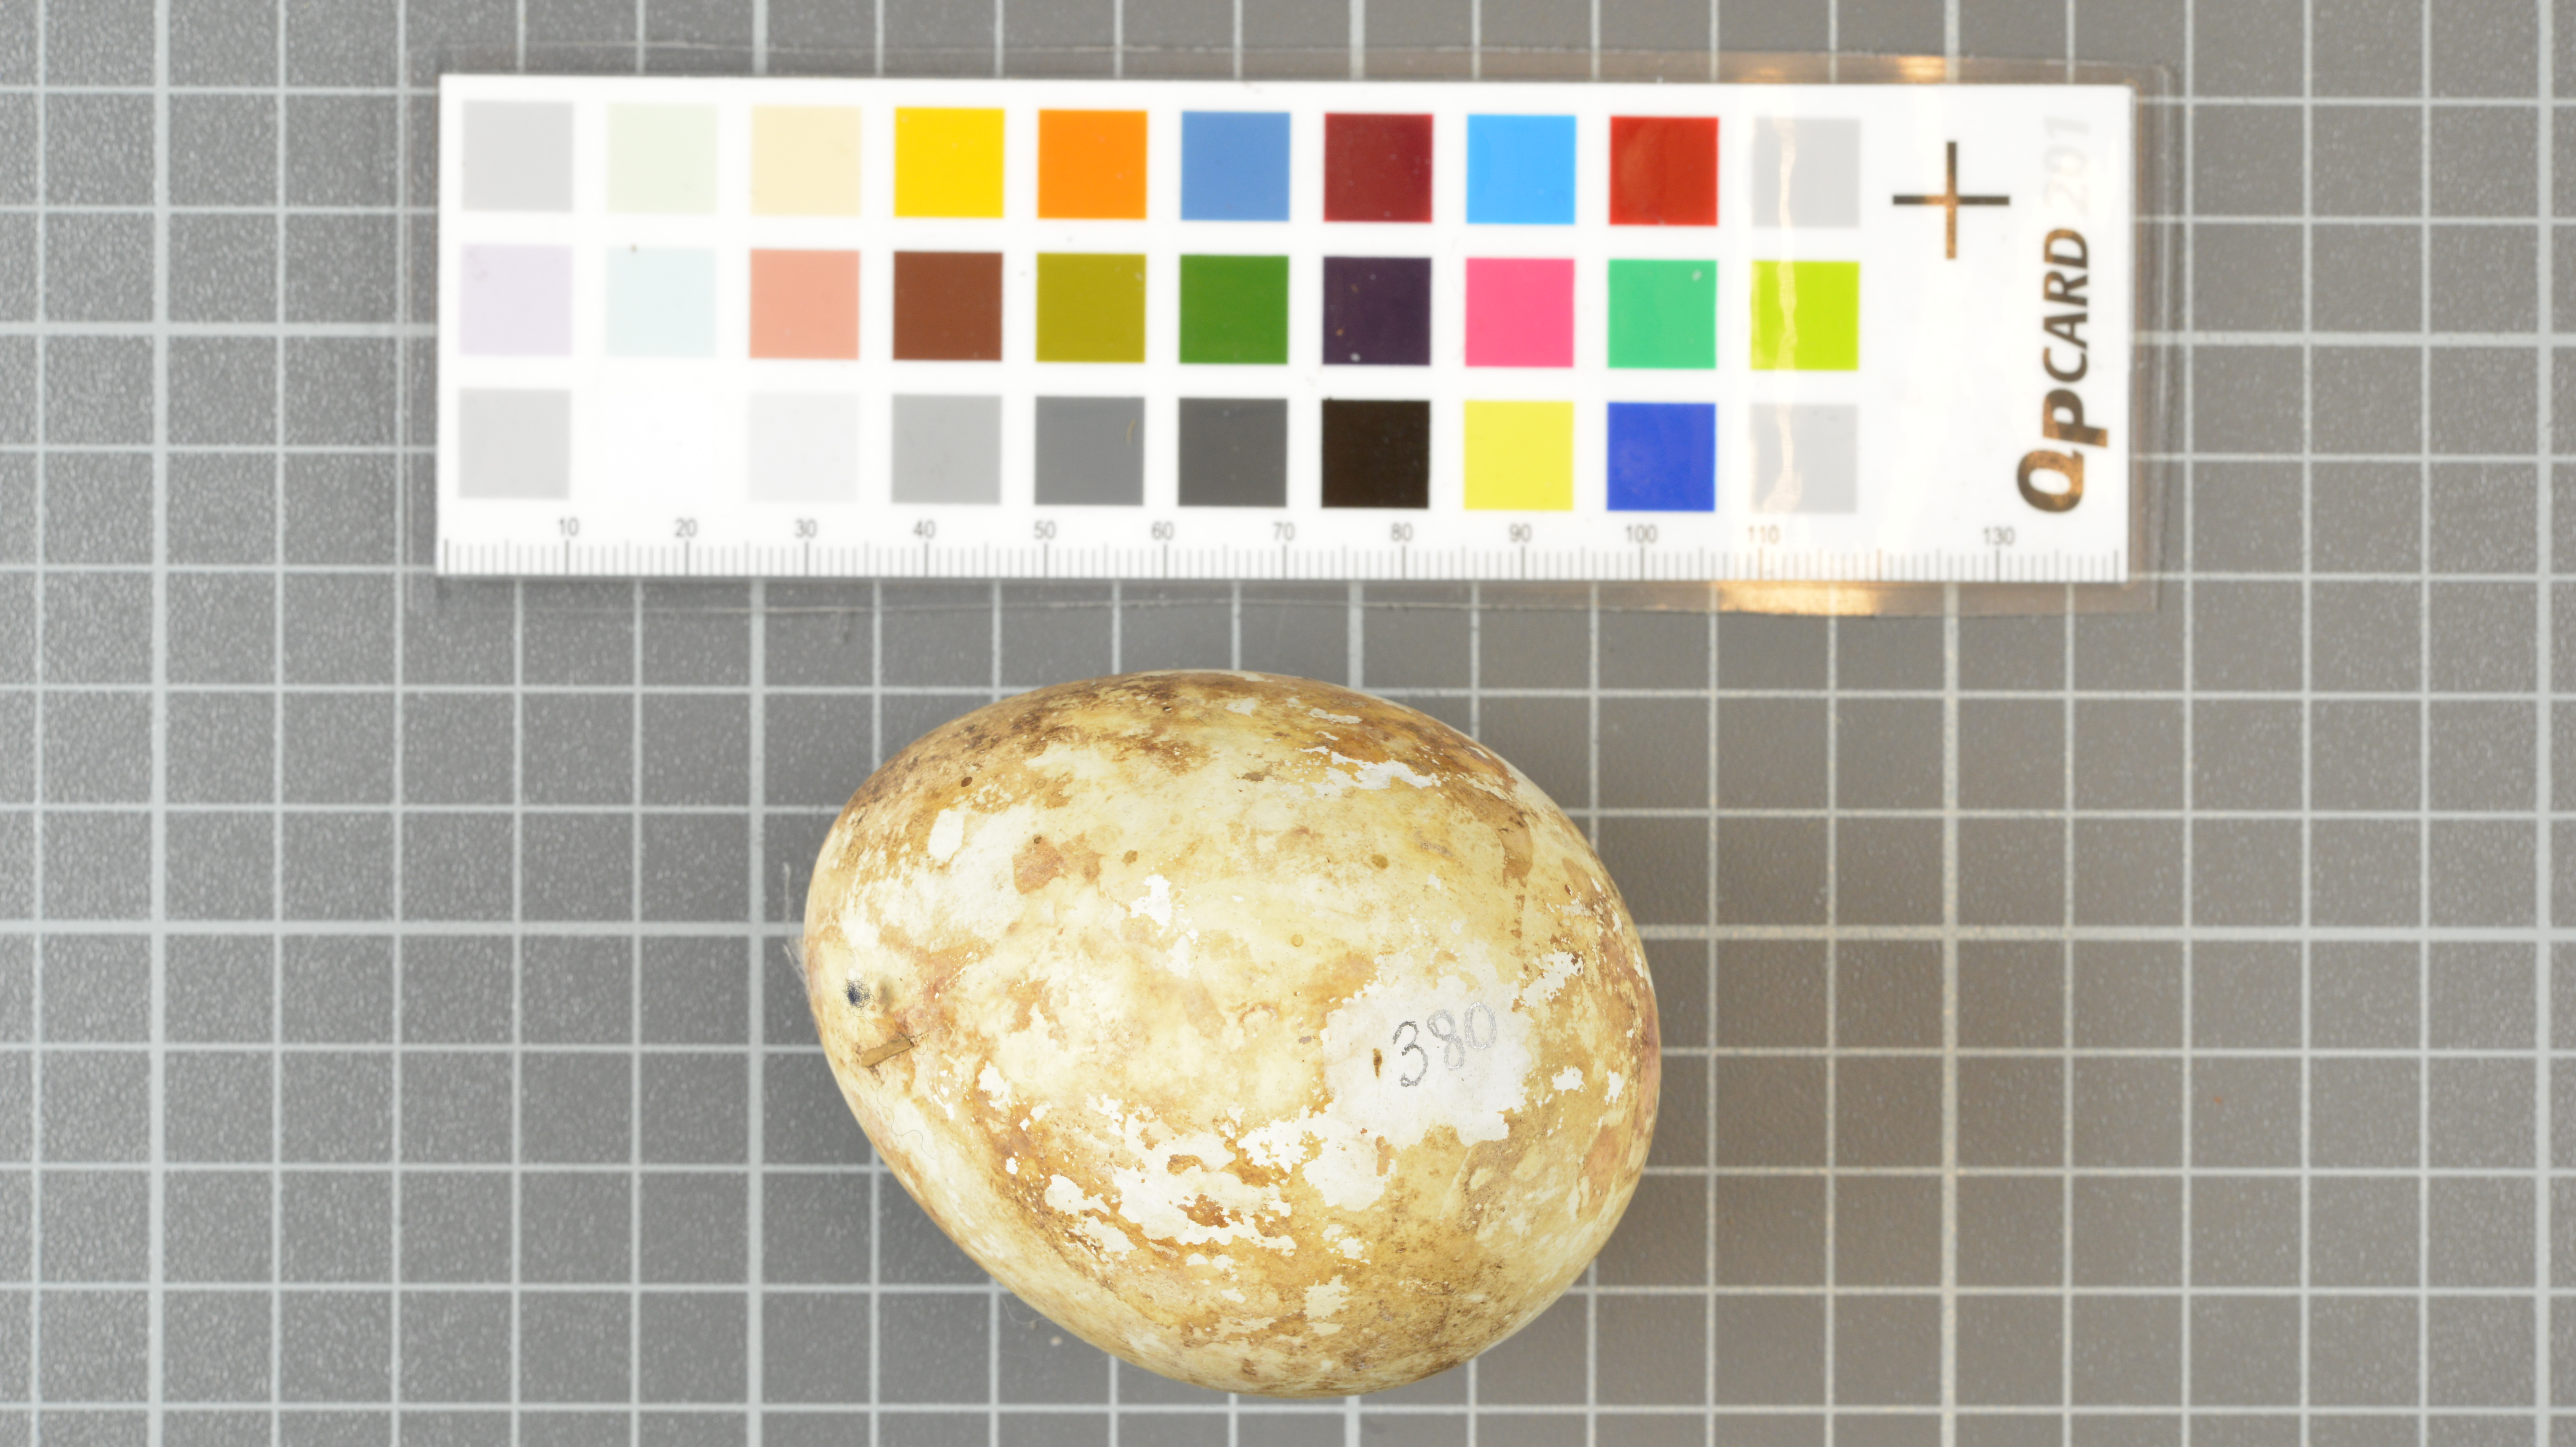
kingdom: Animalia
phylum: Chordata
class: Aves
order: Sphenisciformes
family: Spheniscidae
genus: Eudyptes
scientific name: Eudyptes moseleyi
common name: Northern rockhopper penguin
